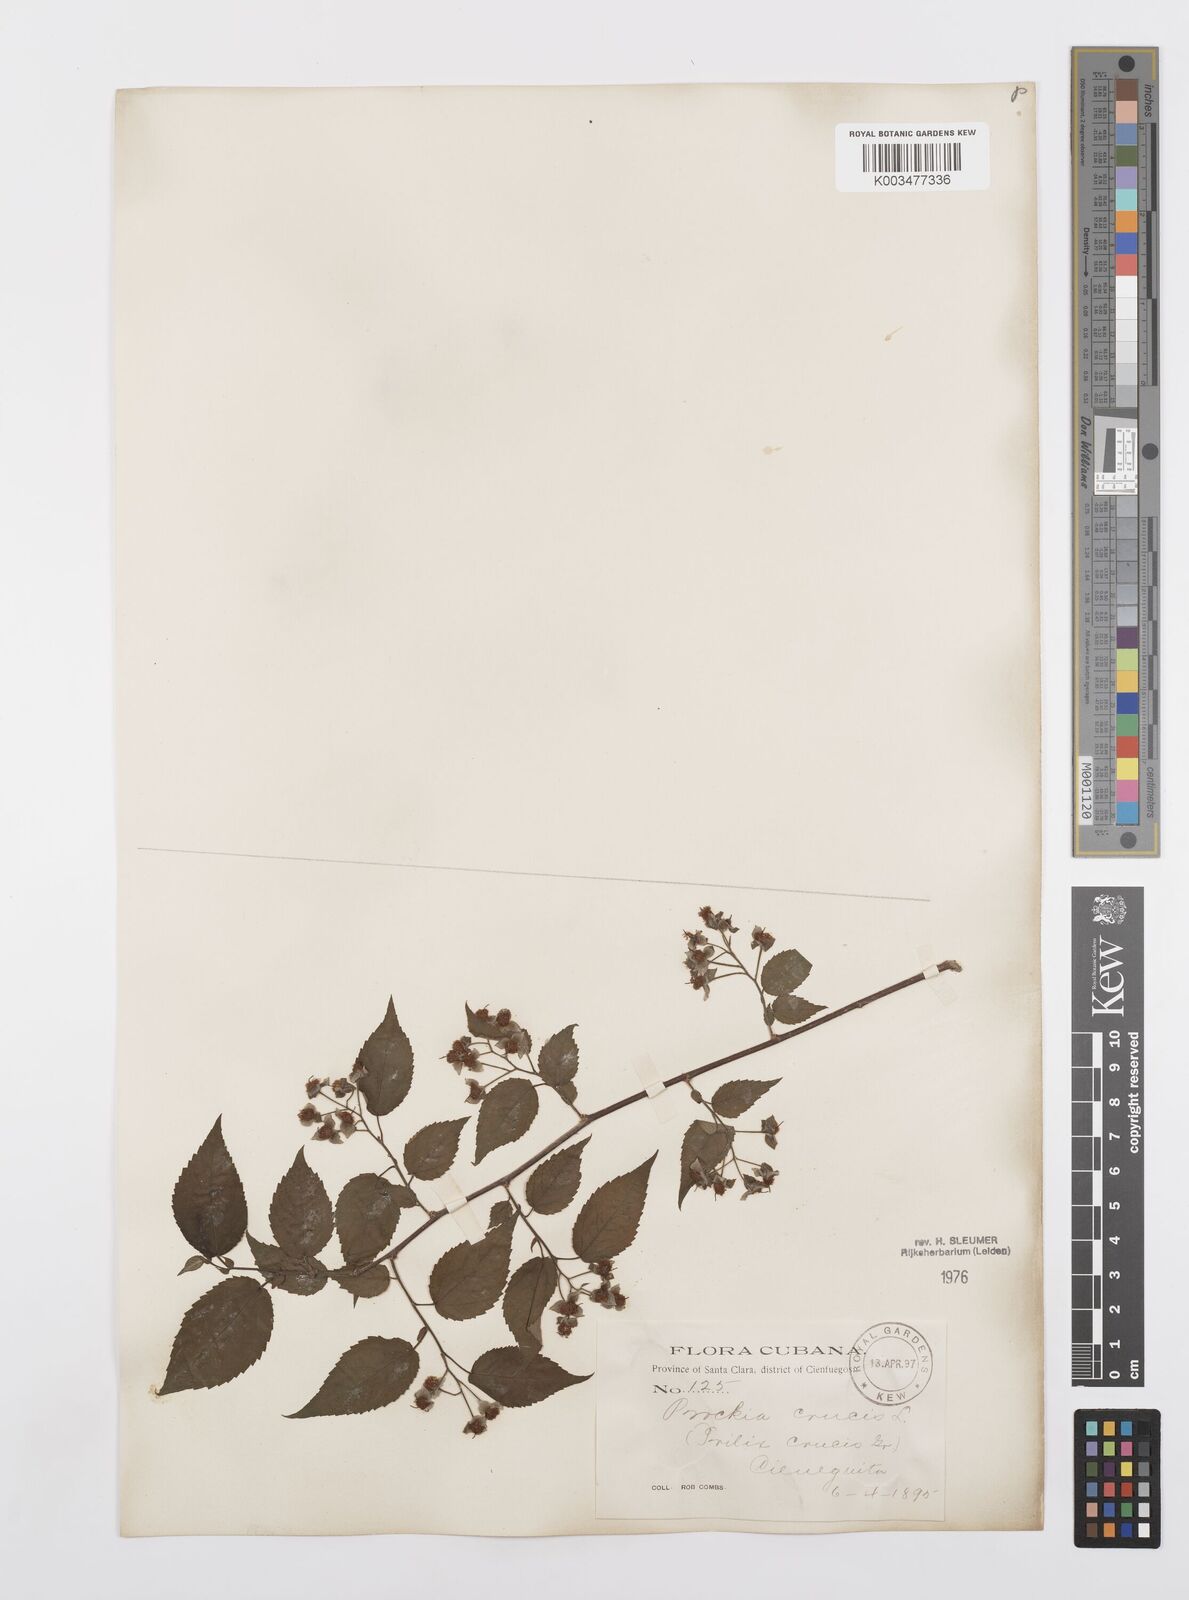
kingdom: Plantae
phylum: Tracheophyta
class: Magnoliopsida
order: Malpighiales
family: Salicaceae
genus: Prockia
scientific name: Prockia crucis
